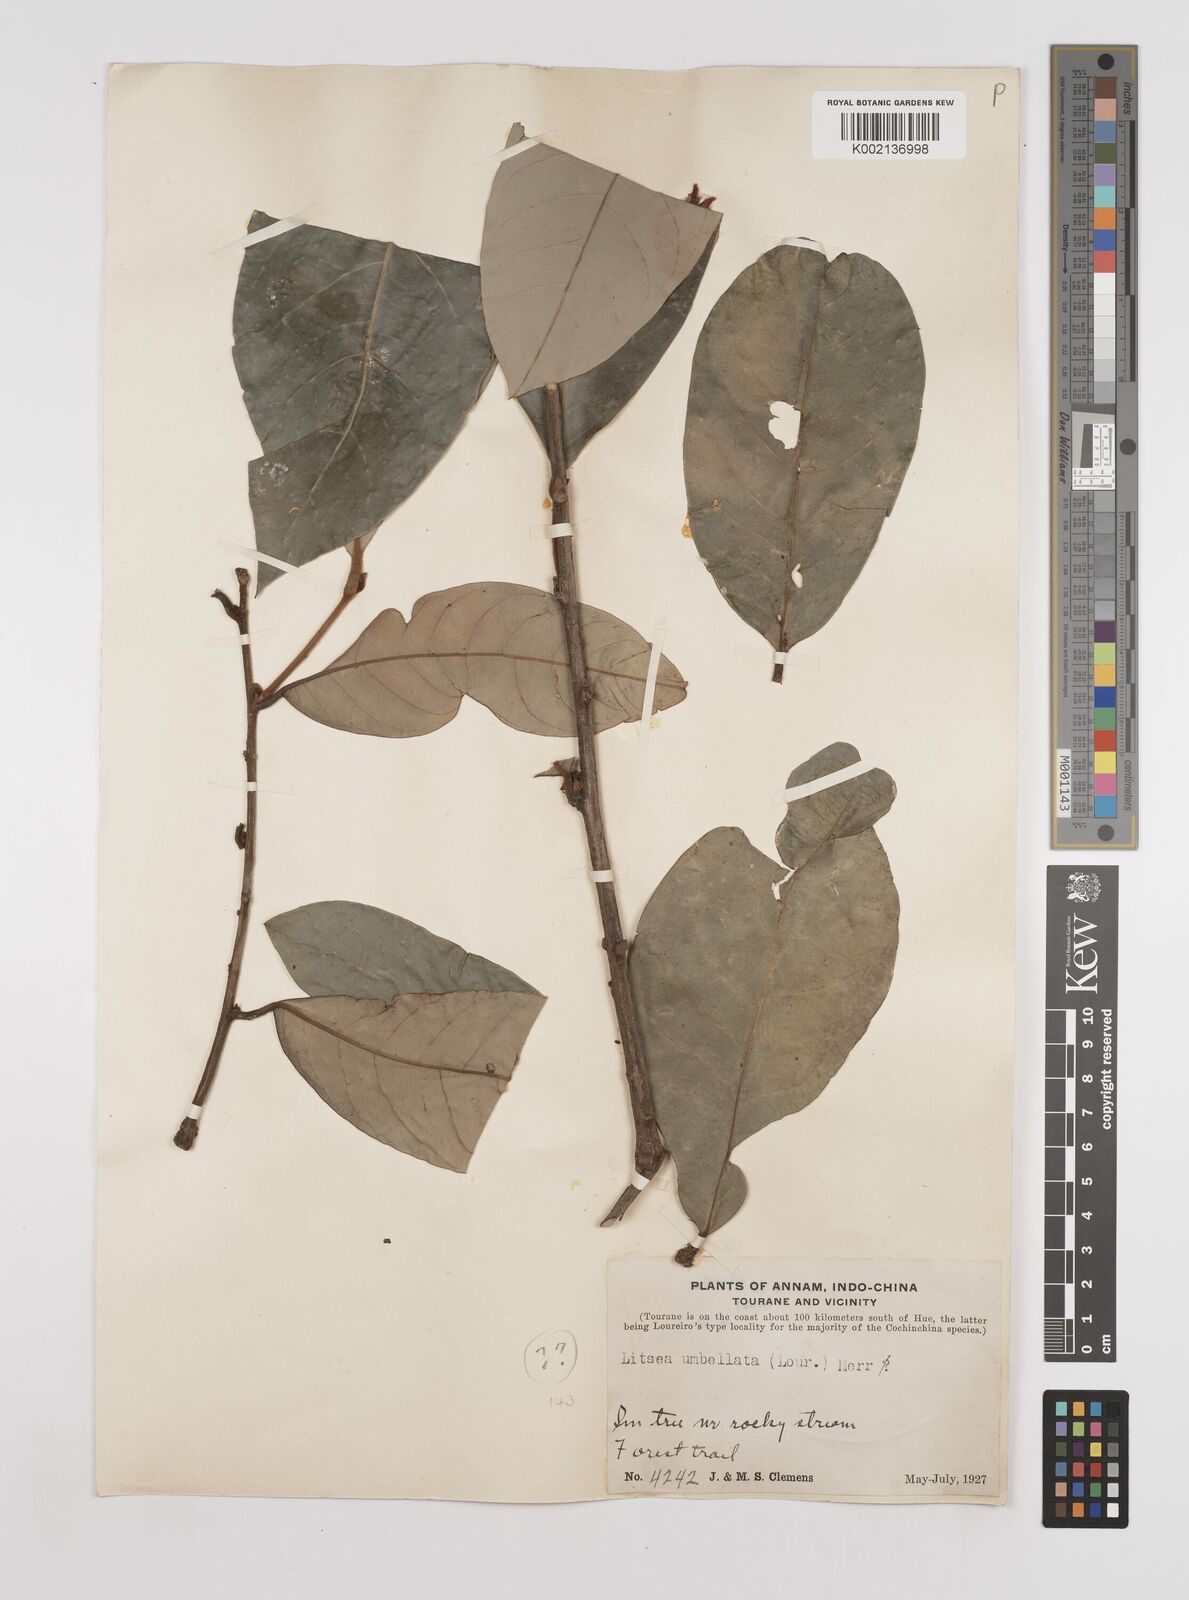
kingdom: Plantae
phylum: Tracheophyta
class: Magnoliopsida
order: Laurales
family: Lauraceae
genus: Litsea
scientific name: Litsea
